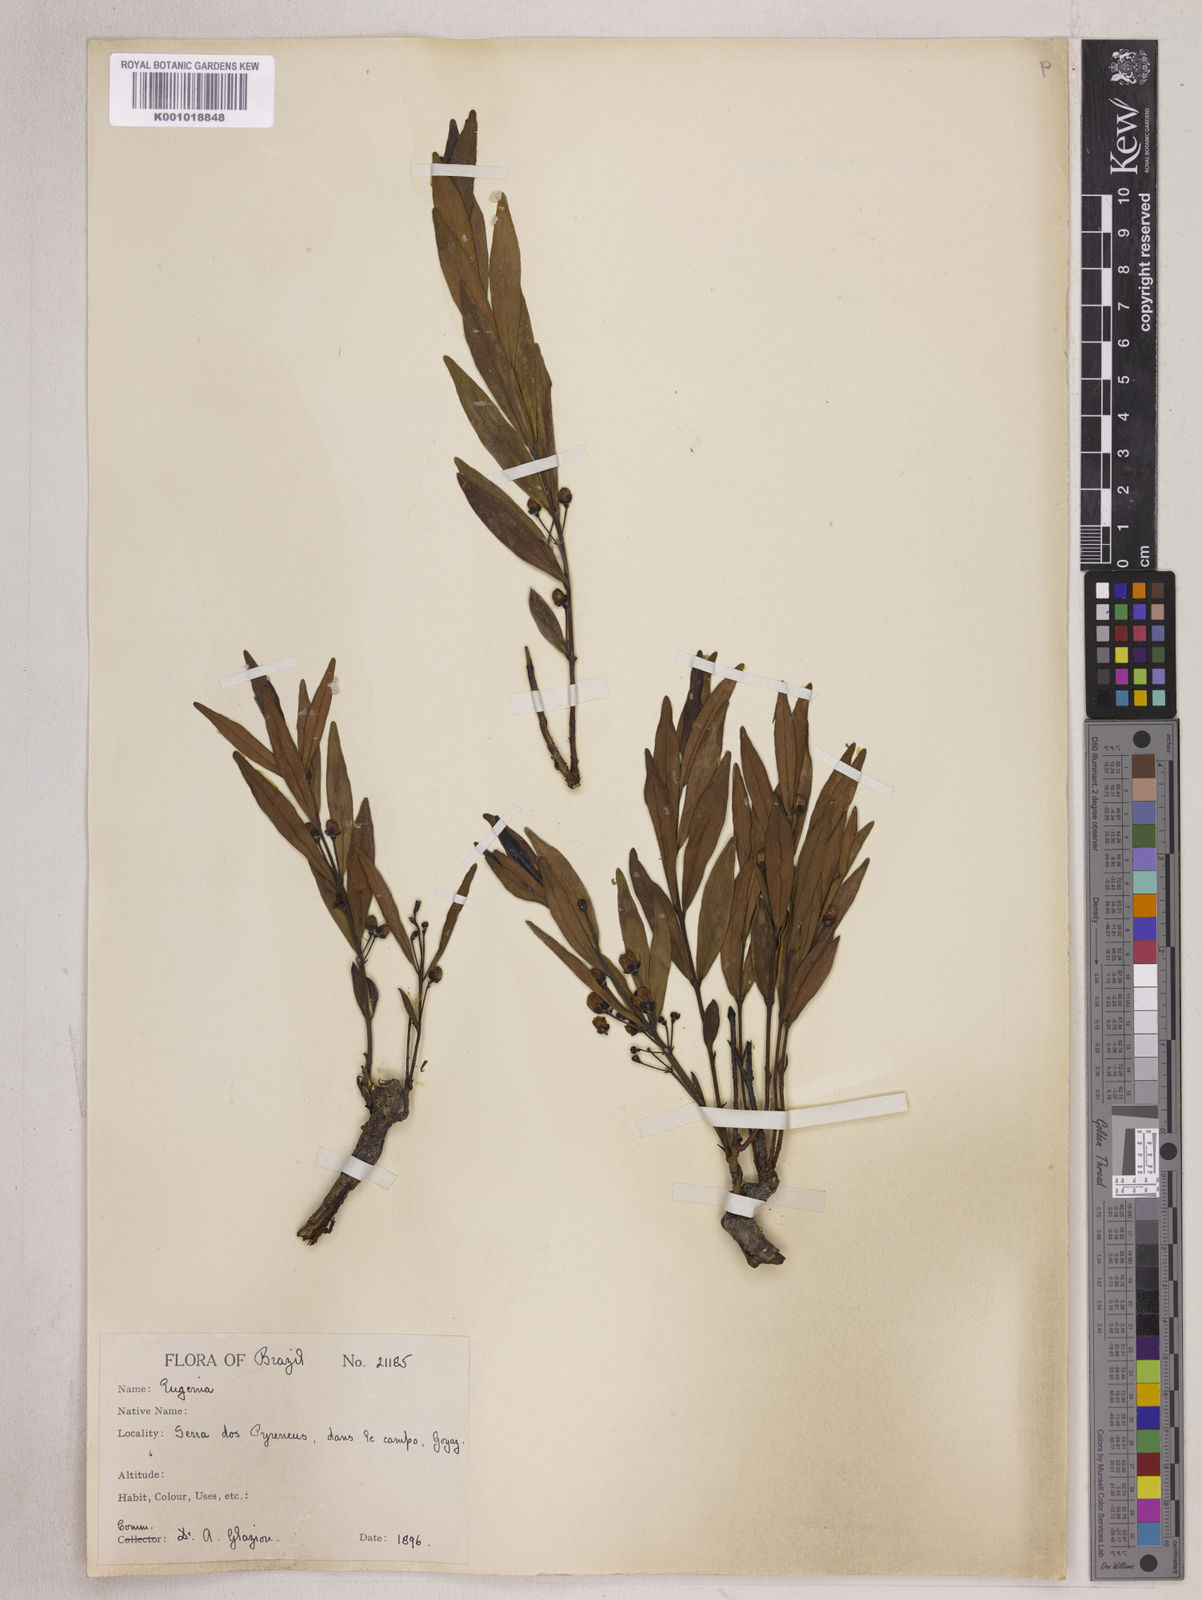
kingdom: Plantae
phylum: Tracheophyta
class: Magnoliopsida
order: Myrtales
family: Myrtaceae
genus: Eugenia
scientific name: Eugenia cristaensis
